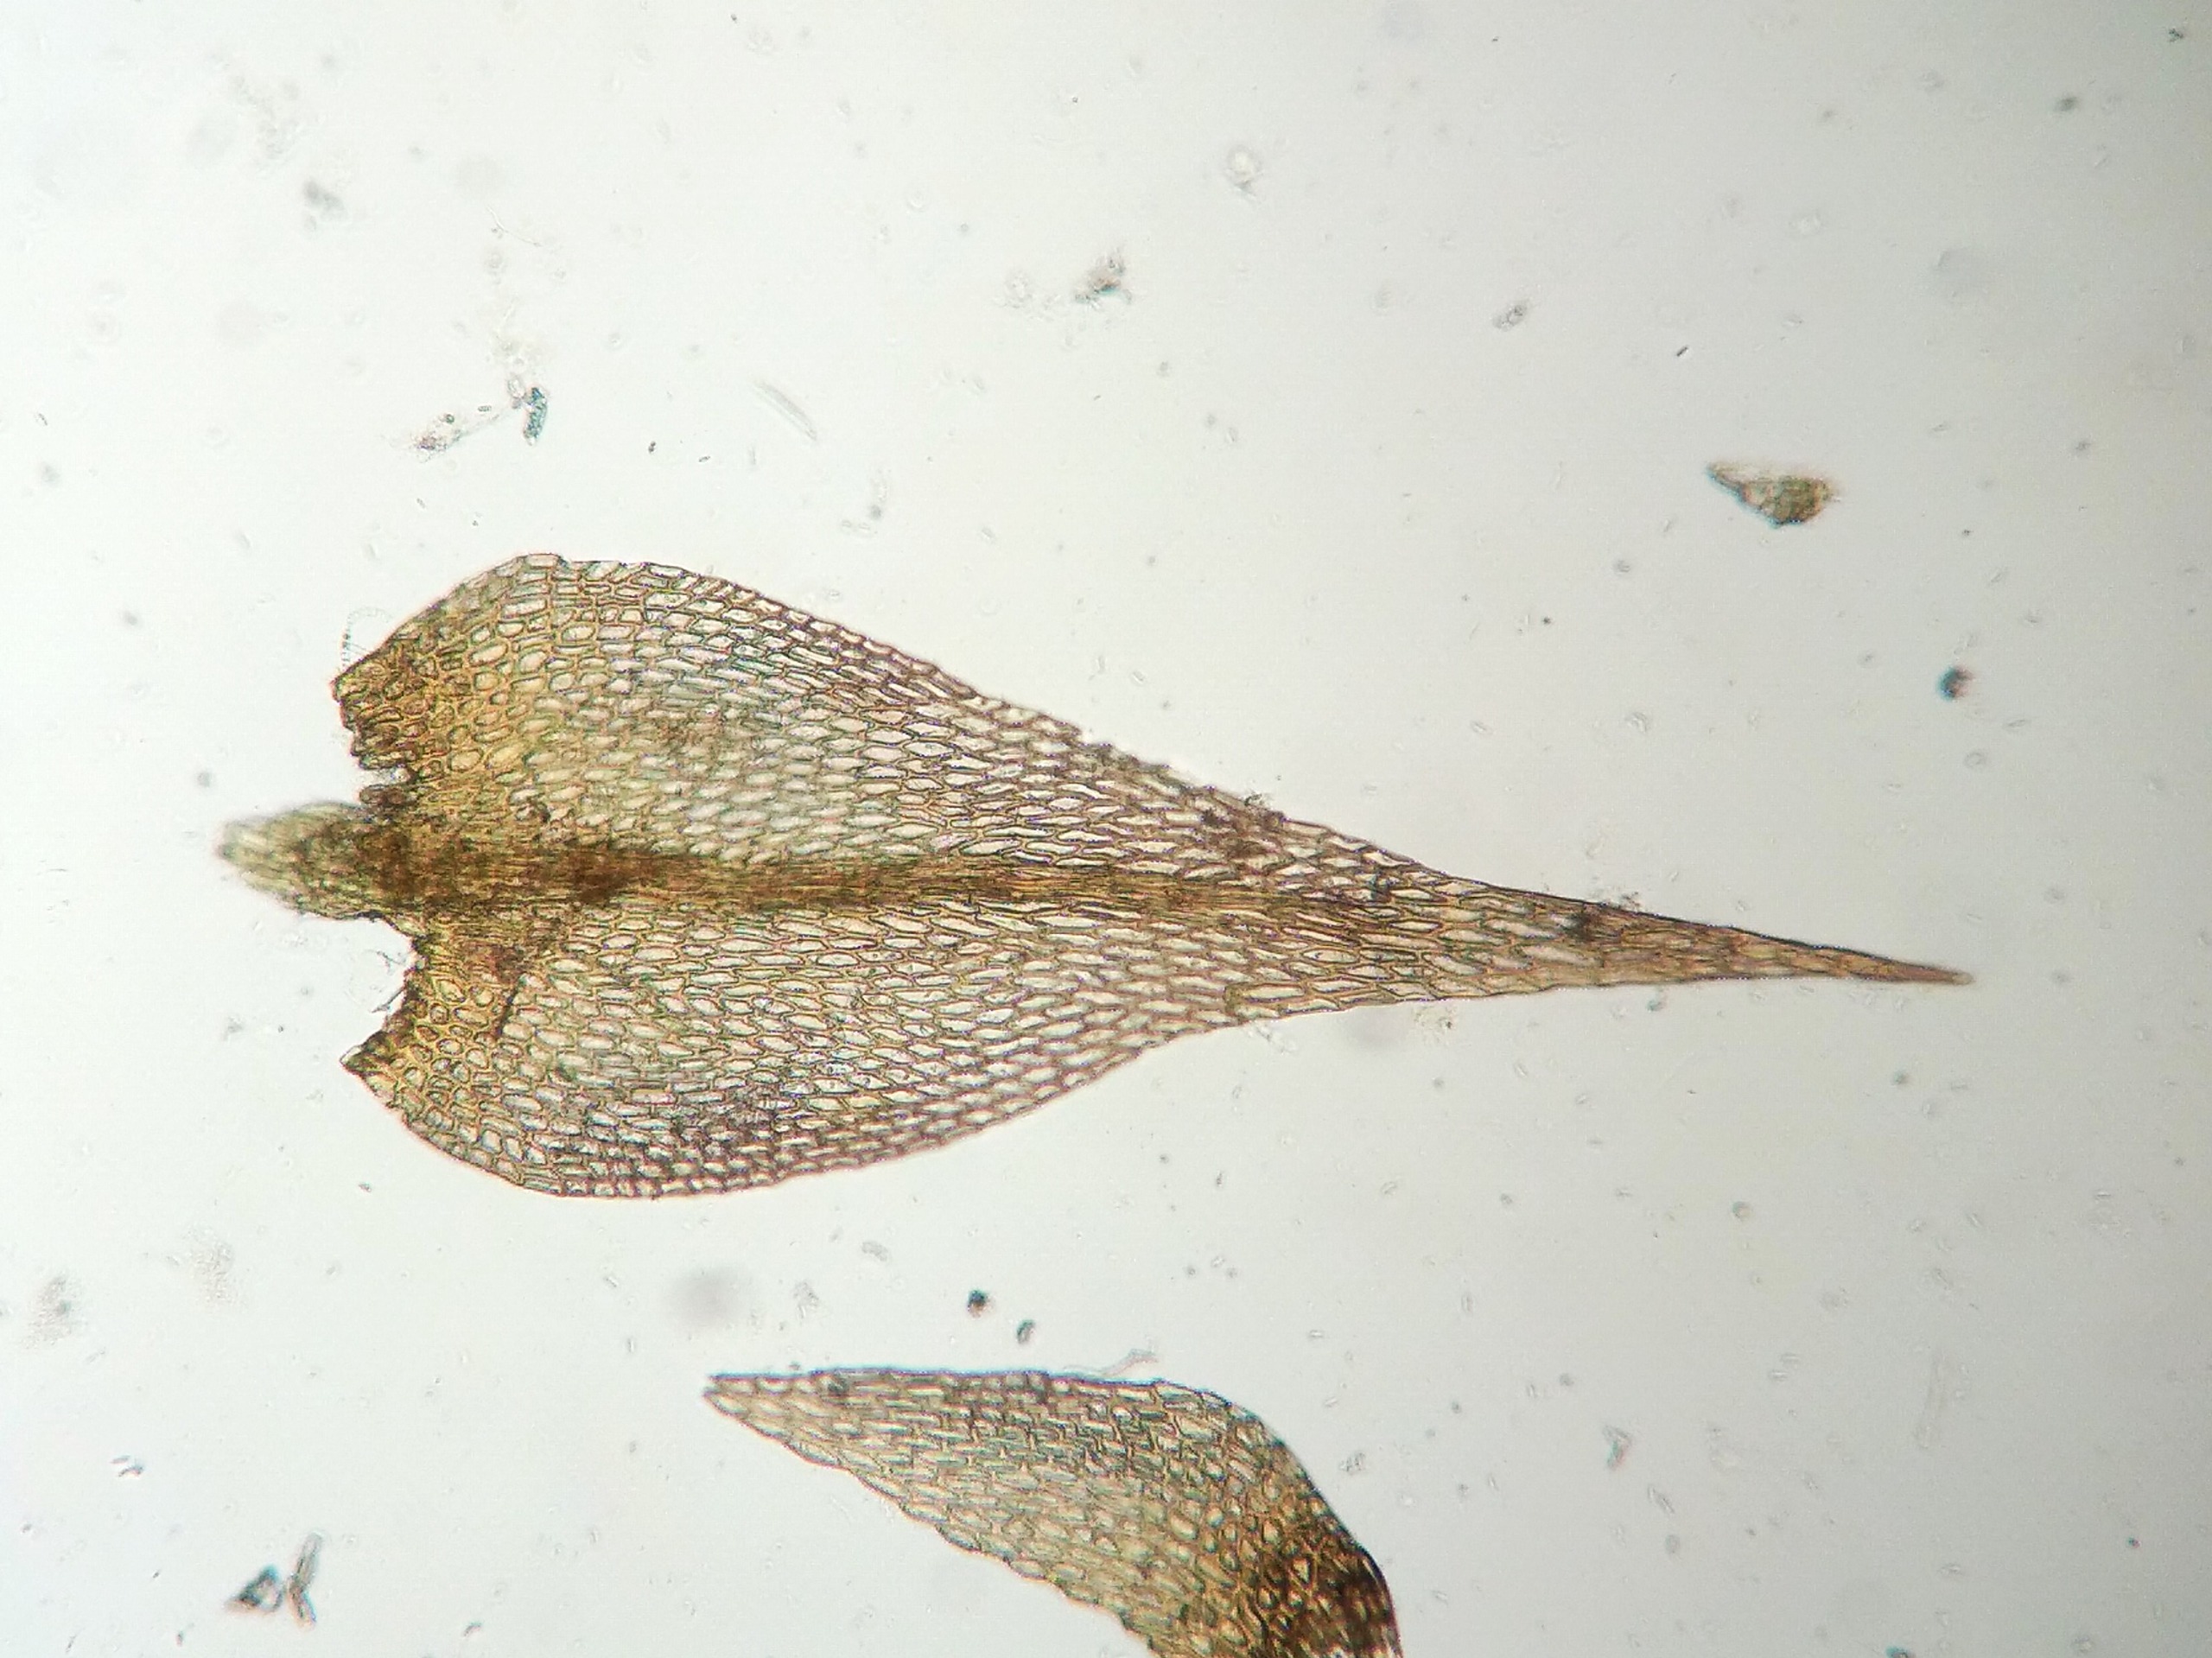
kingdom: Plantae
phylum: Bryophyta
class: Bryopsida
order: Hypnales
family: Amblystegiaceae
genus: Amblystegium
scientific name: Amblystegium serpens
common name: Almindelig krybmos
